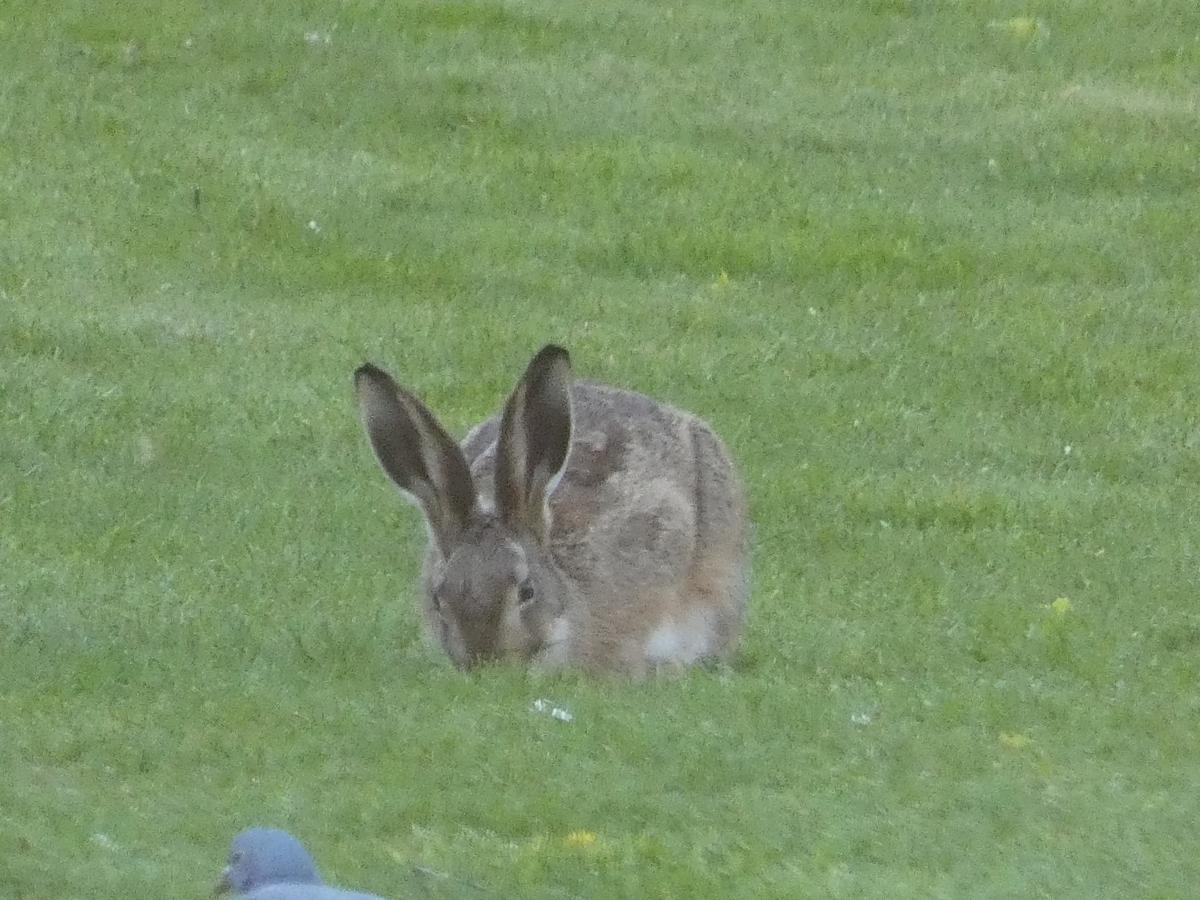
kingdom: Animalia
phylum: Chordata
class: Mammalia
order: Lagomorpha
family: Leporidae
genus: Lepus
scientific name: Lepus europaeus
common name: Hare
